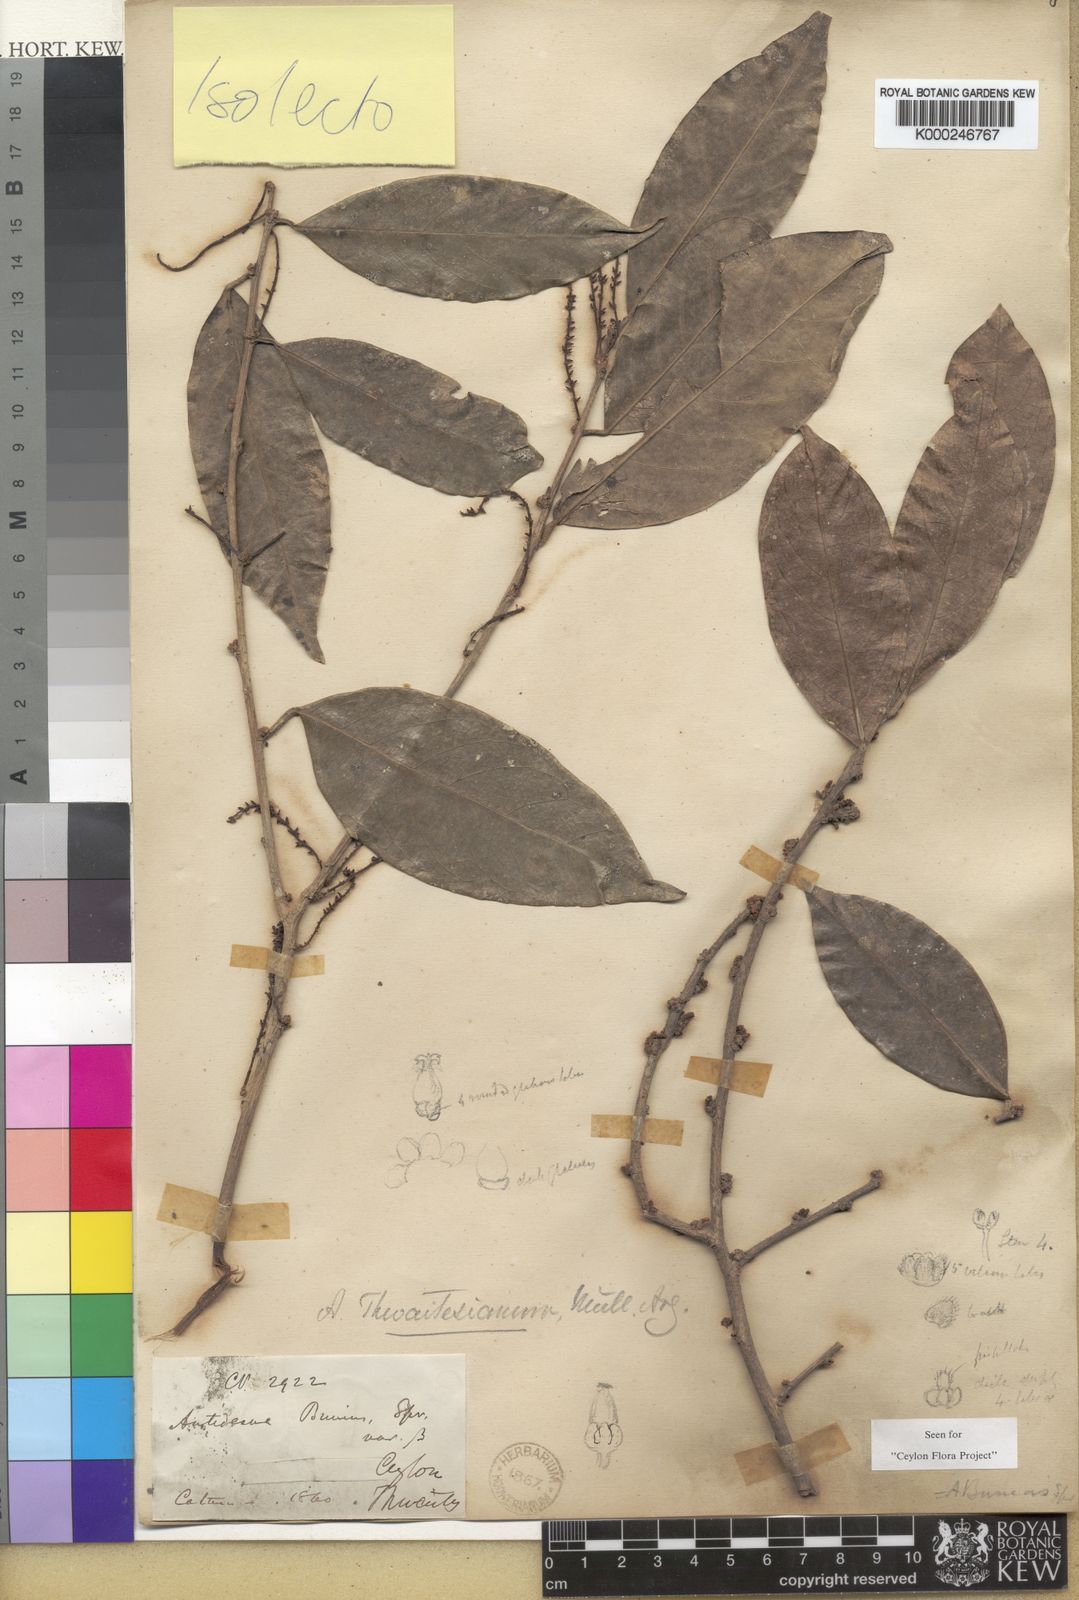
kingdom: Plantae
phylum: Tracheophyta
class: Magnoliopsida
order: Malpighiales
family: Phyllanthaceae
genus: Antidesma
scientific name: Antidesma puncticulatum
